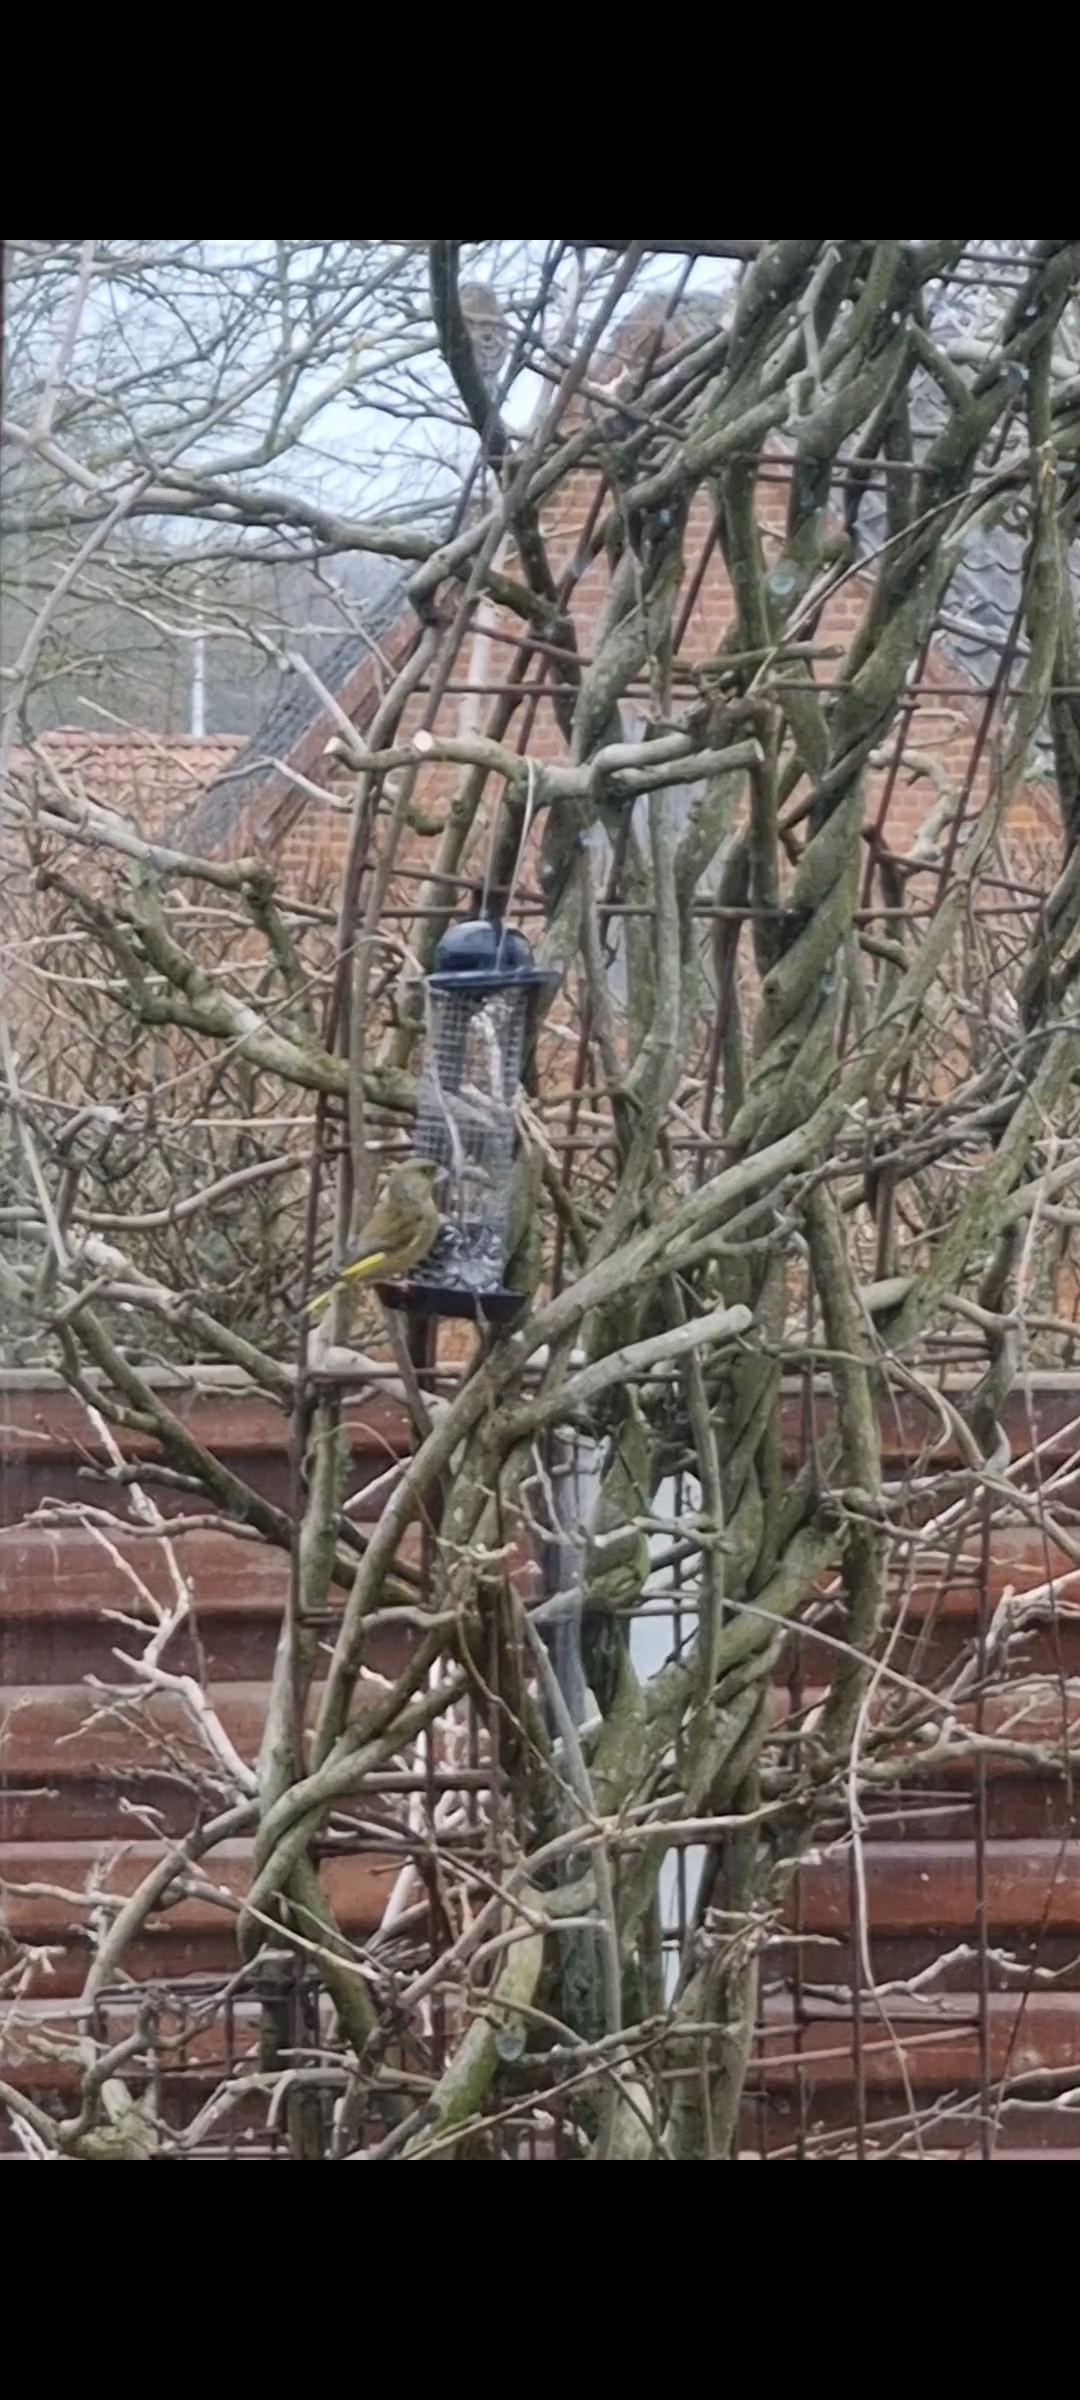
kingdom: Plantae
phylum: Tracheophyta
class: Liliopsida
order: Poales
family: Poaceae
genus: Chloris
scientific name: Chloris chloris
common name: Grønirisk
